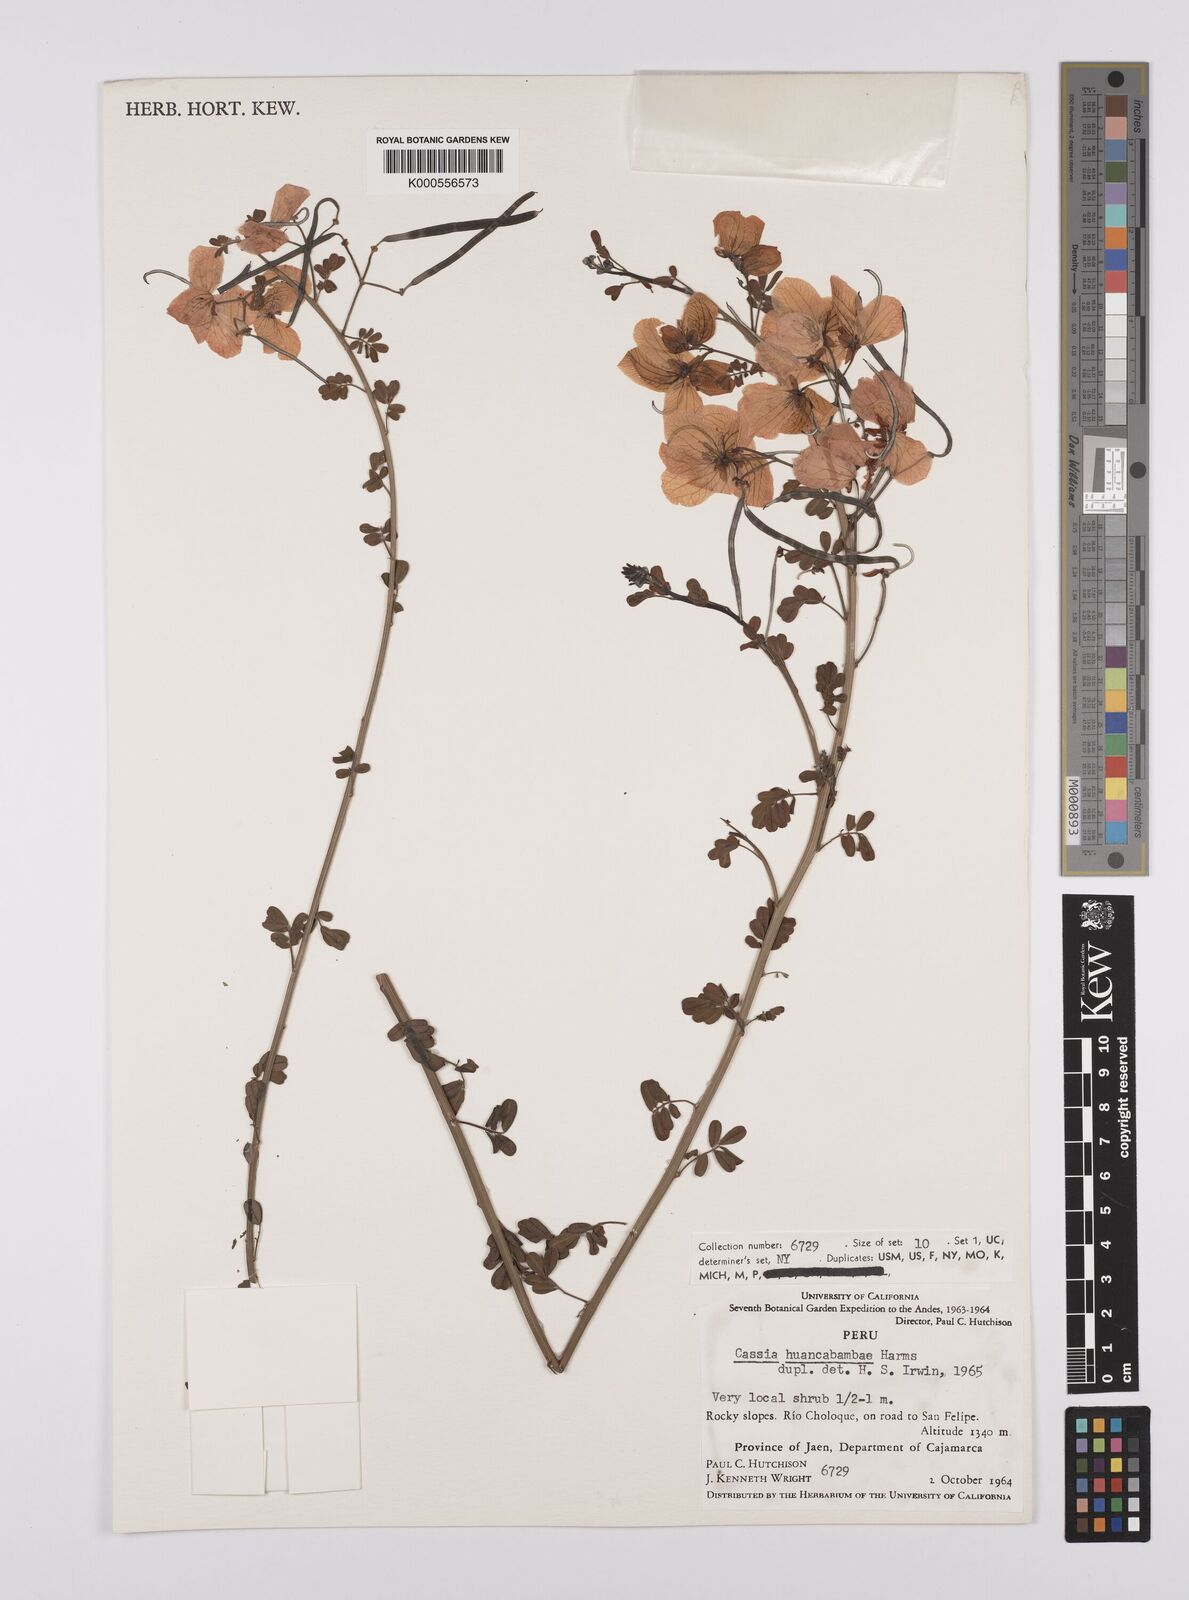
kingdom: Plantae
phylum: Tracheophyta
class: Magnoliopsida
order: Fabales
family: Fabaceae
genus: Senna
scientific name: Senna huancabambae
